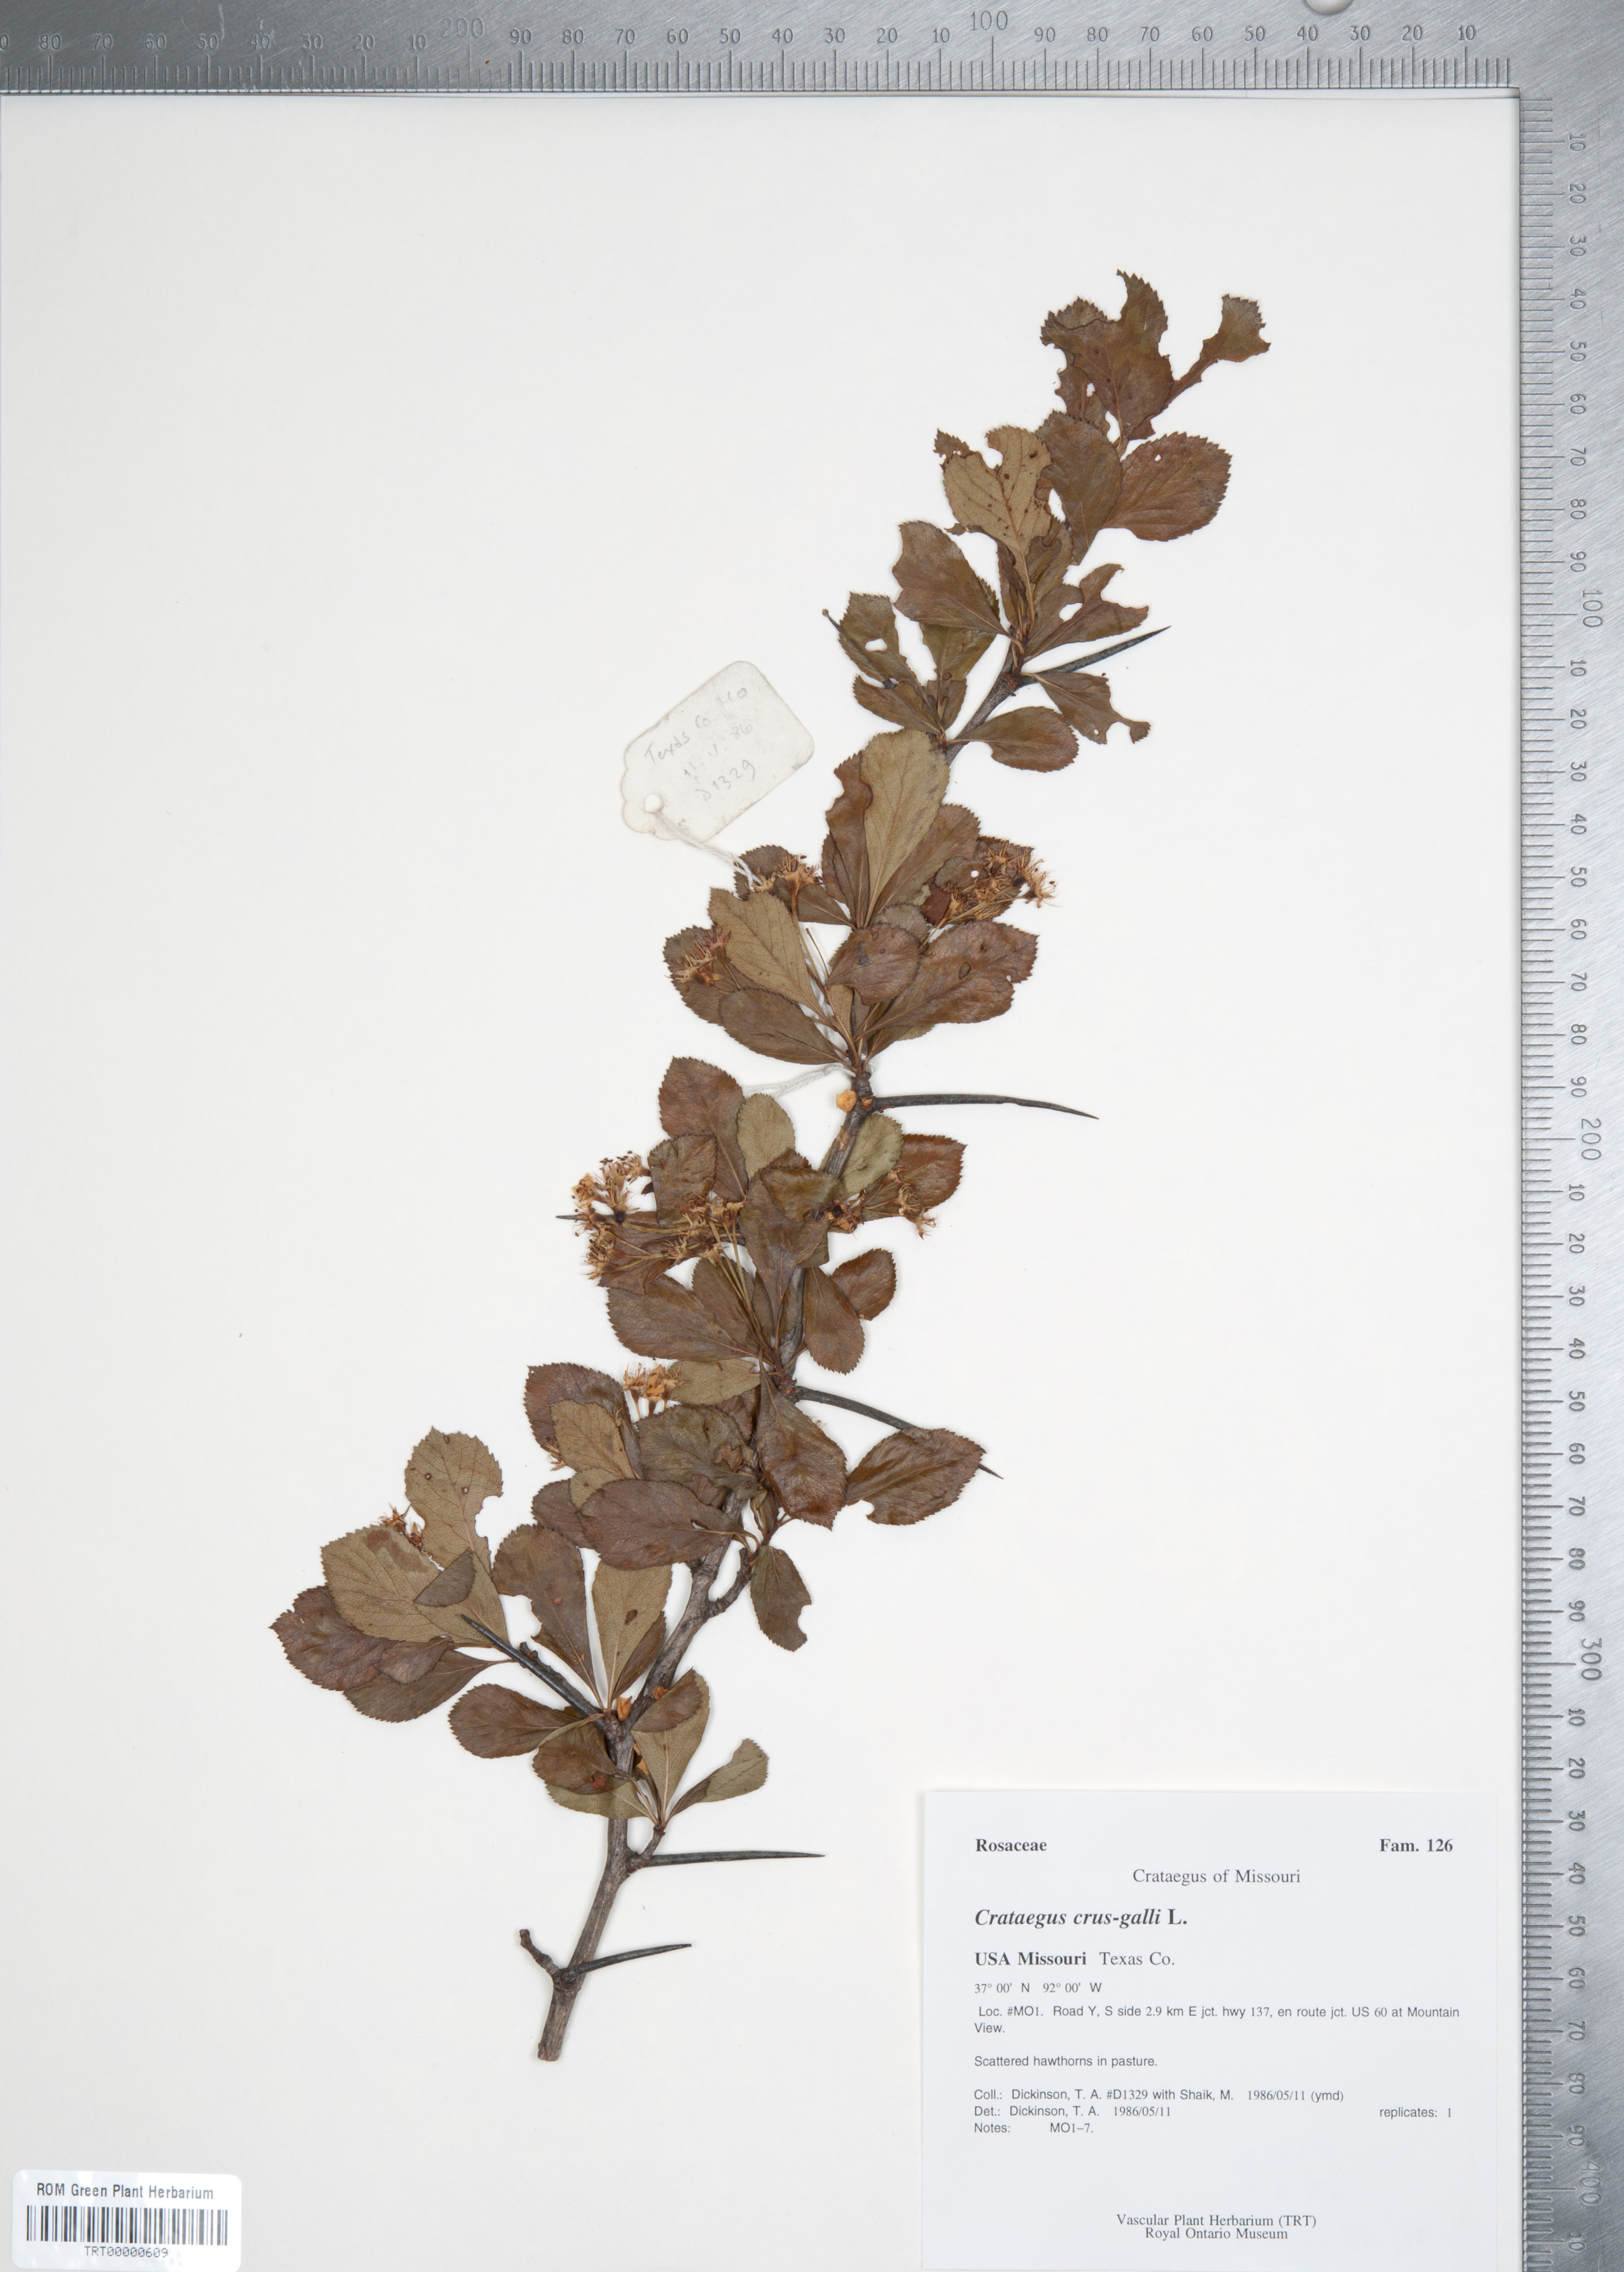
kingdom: Plantae
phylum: Tracheophyta
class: Magnoliopsida
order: Rosales
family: Rosaceae
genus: Crataegus
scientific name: Crataegus crus-galli
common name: Cockspurthorn
